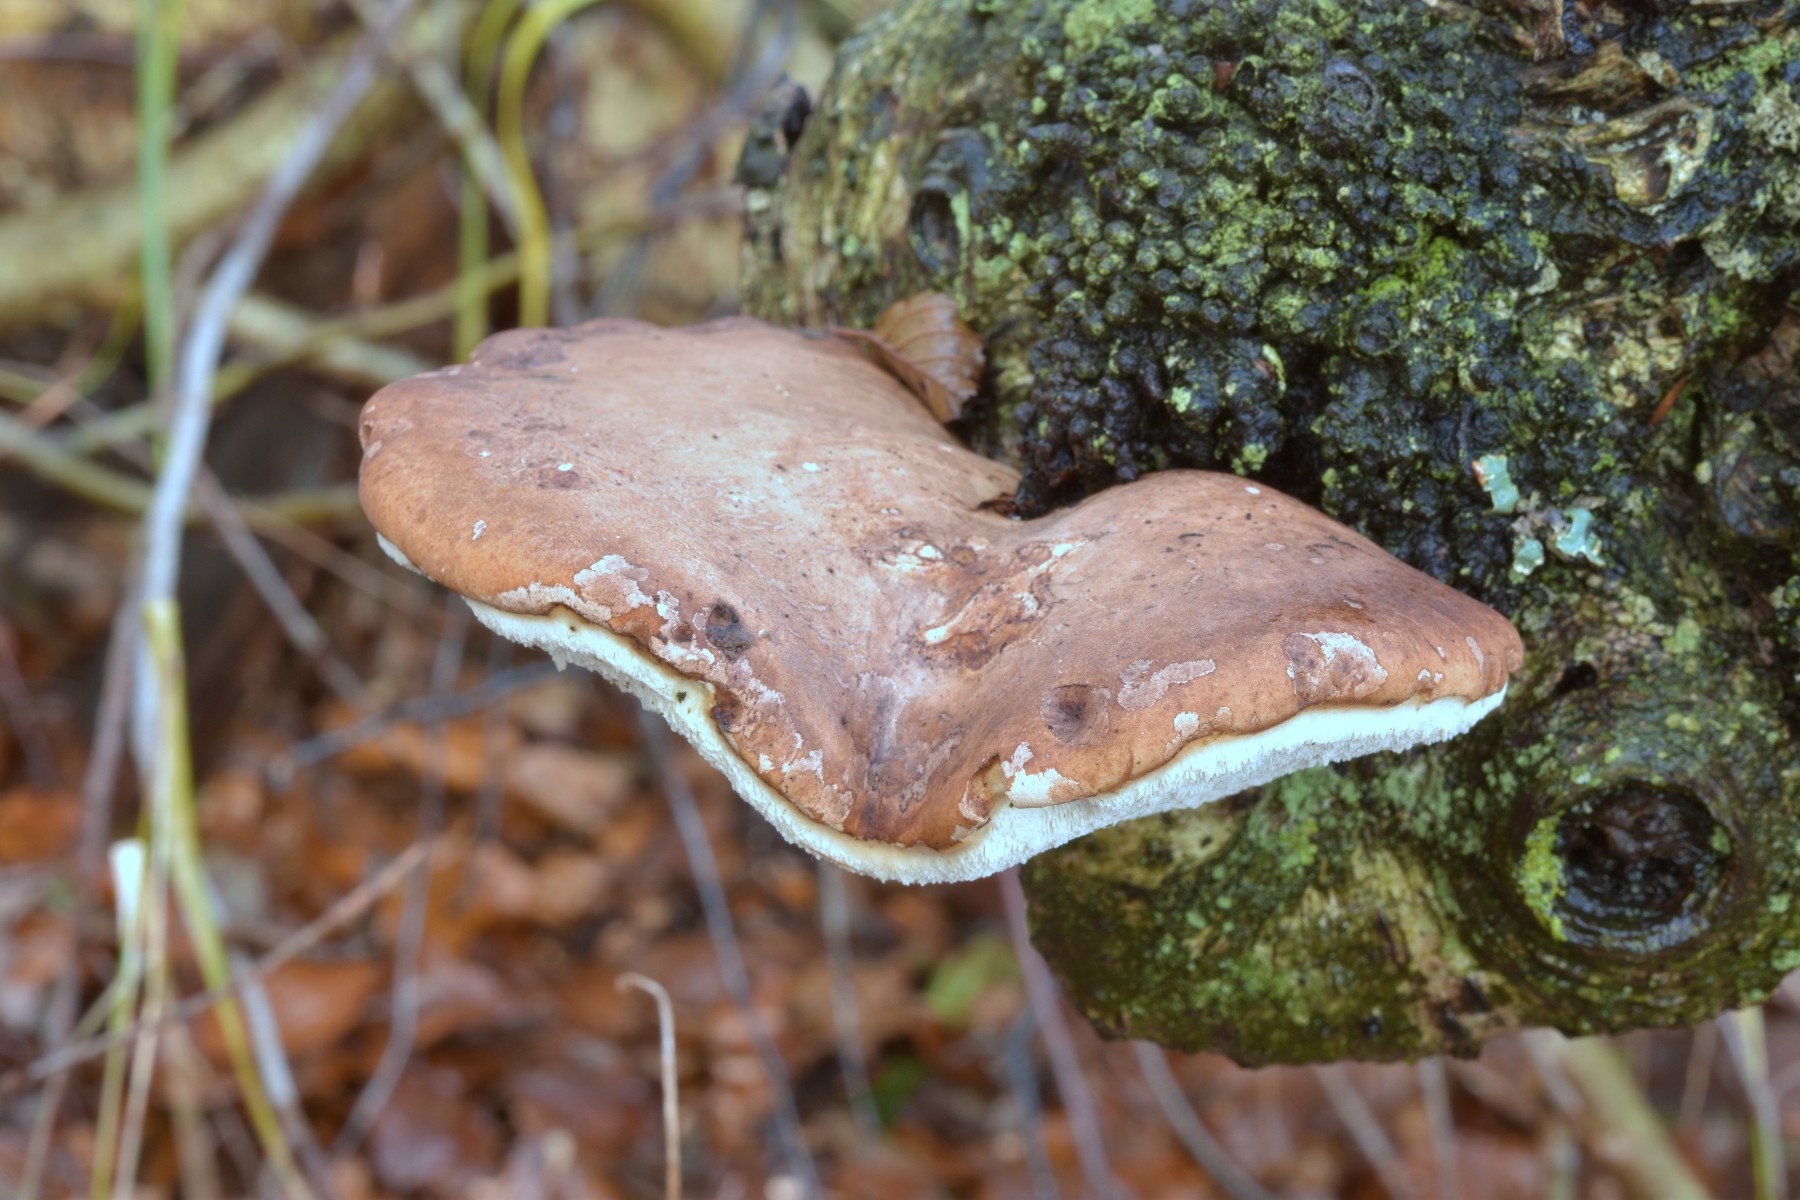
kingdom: Fungi
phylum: Basidiomycota
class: Agaricomycetes
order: Polyporales
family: Fomitopsidaceae
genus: Fomitopsis
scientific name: Fomitopsis betulina
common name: birkeporesvamp
